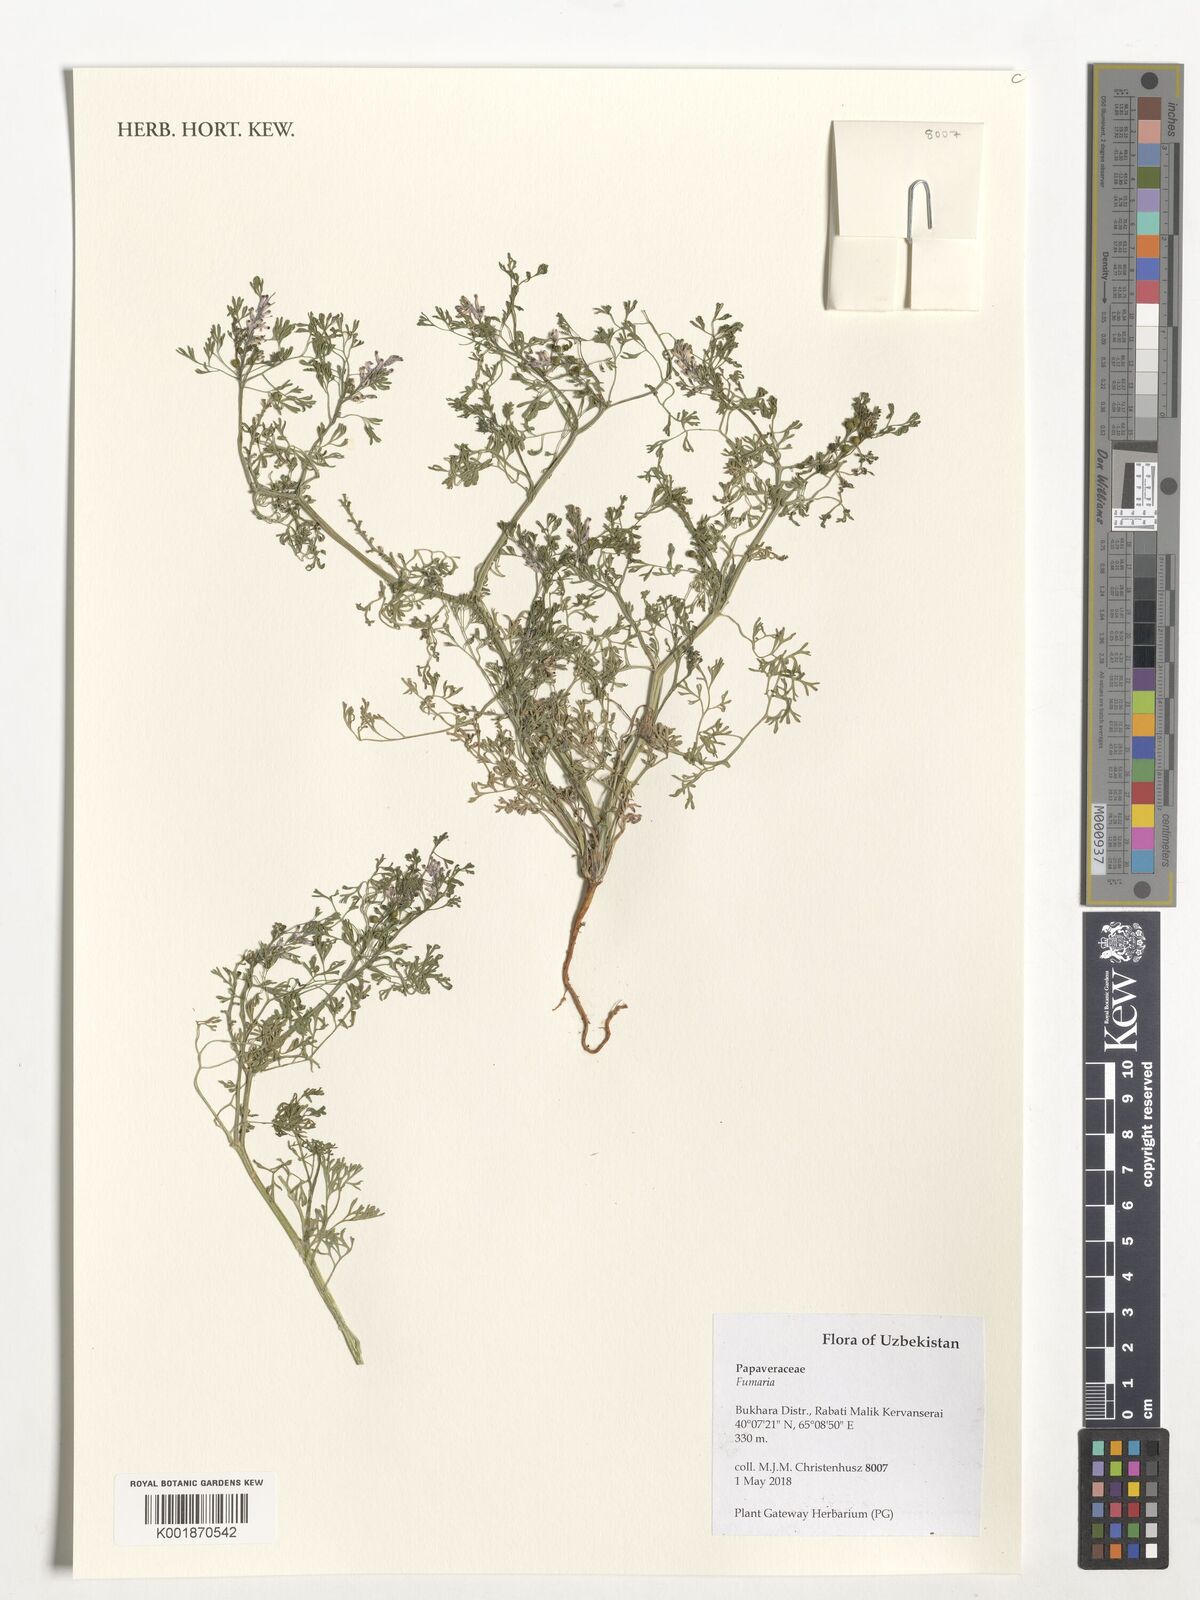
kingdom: Plantae
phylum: Tracheophyta
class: Magnoliopsida
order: Ranunculales
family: Papaveraceae
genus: Fumaria
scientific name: Fumaria
